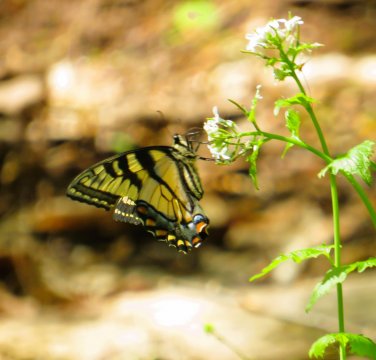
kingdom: Animalia
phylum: Arthropoda
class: Insecta
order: Lepidoptera
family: Papilionidae
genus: Pterourus
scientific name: Pterourus glaucus
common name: Eastern Tiger Swallowtail
